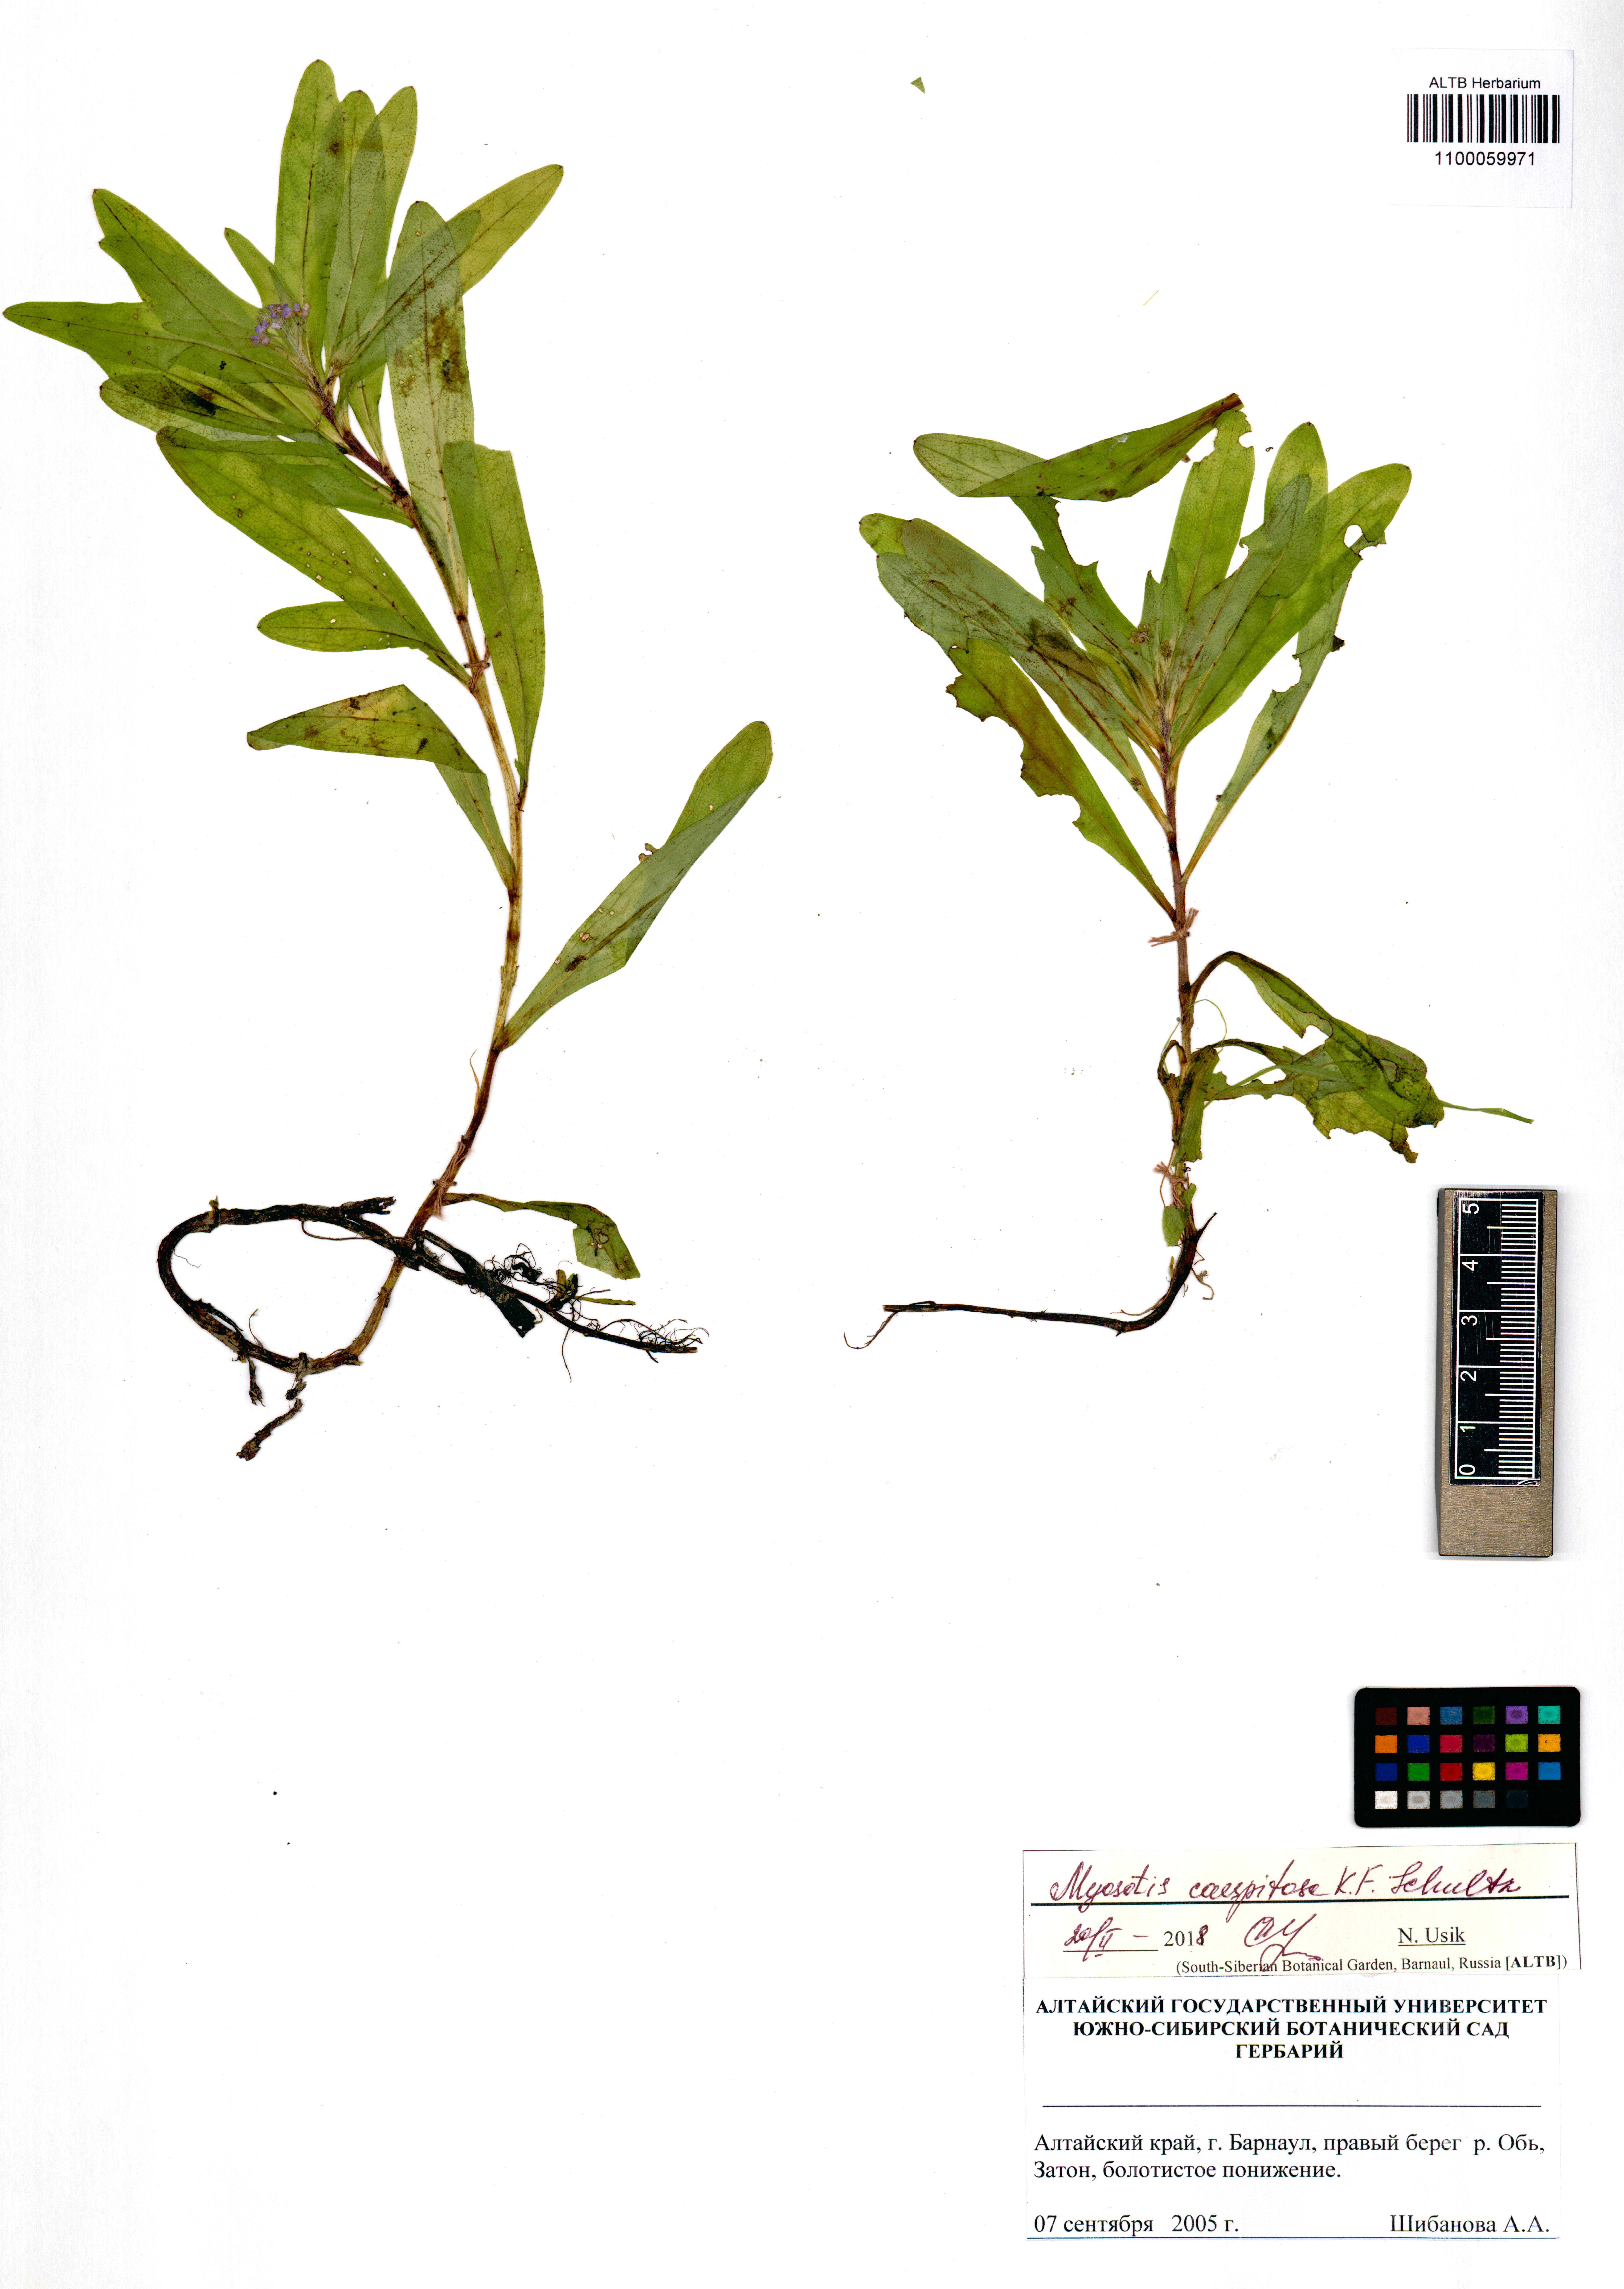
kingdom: Plantae
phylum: Tracheophyta
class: Magnoliopsida
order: Boraginales
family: Boraginaceae
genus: Myosotis
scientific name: Myosotis laxa
